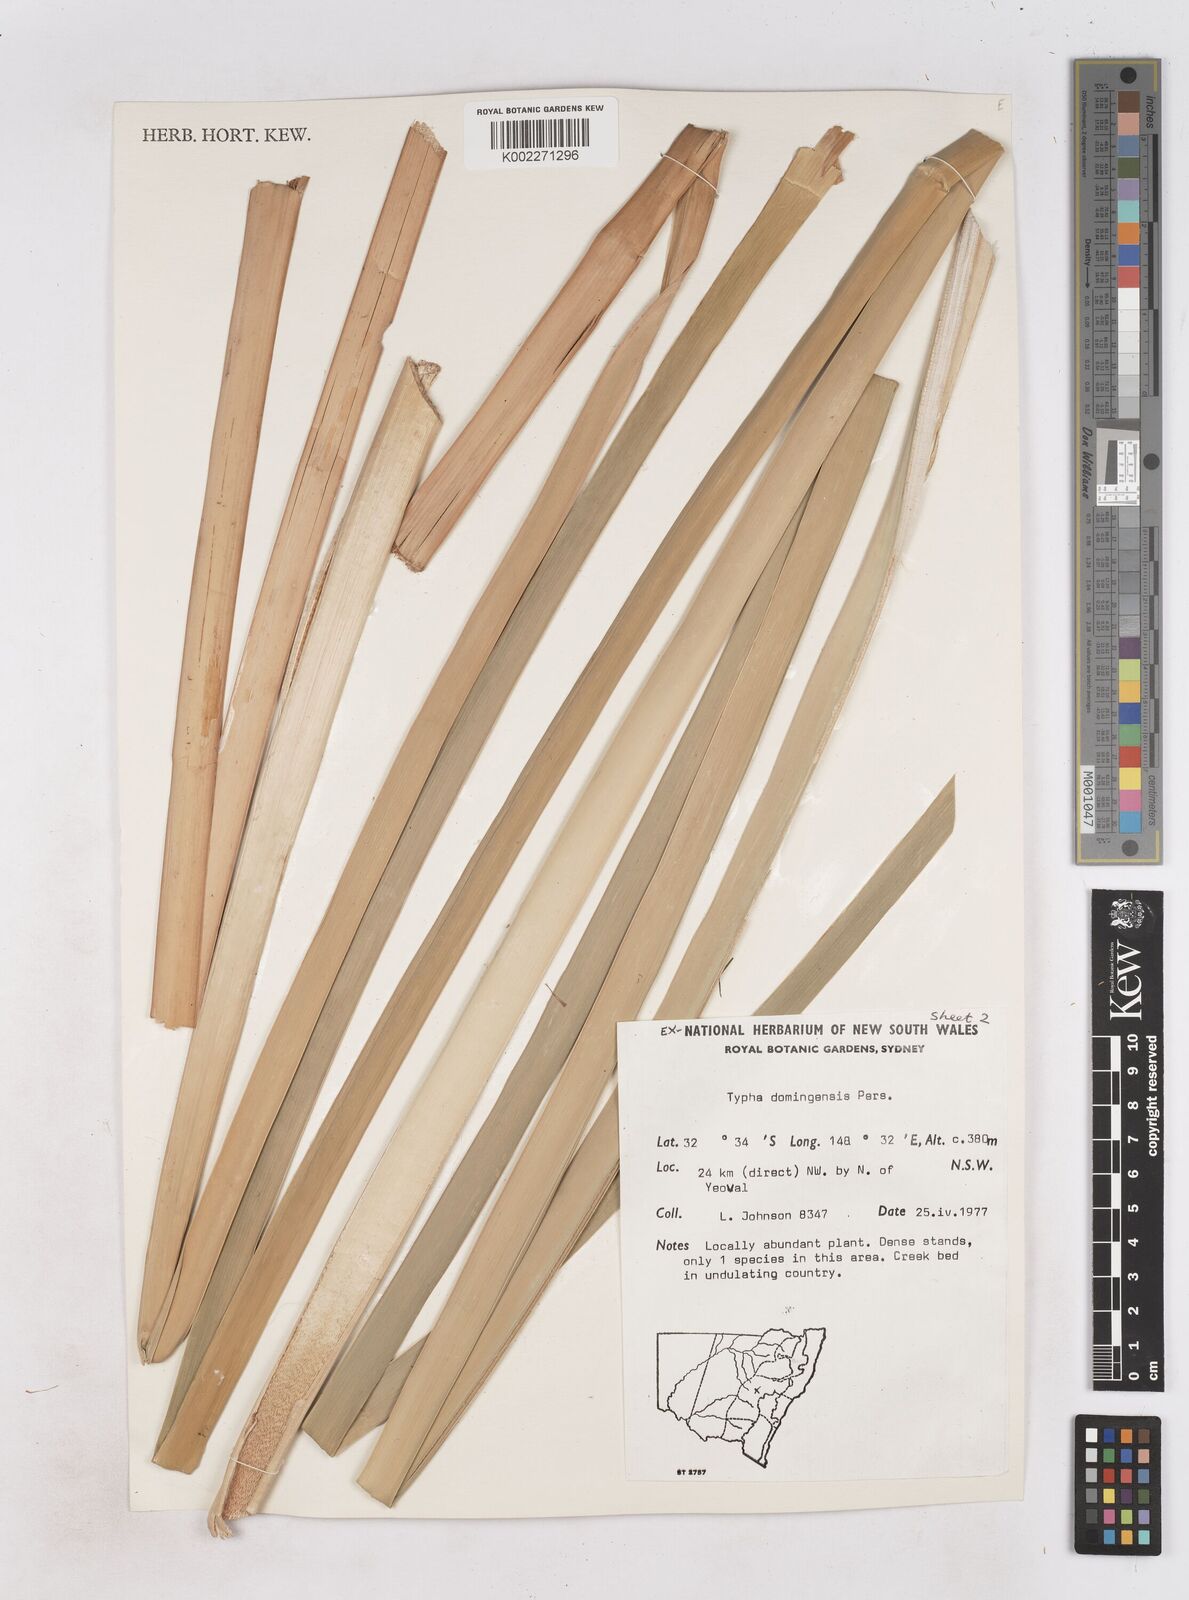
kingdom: Plantae
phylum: Tracheophyta
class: Liliopsida
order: Poales
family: Typhaceae
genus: Typha
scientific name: Typha domingensis
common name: Southern cattail
